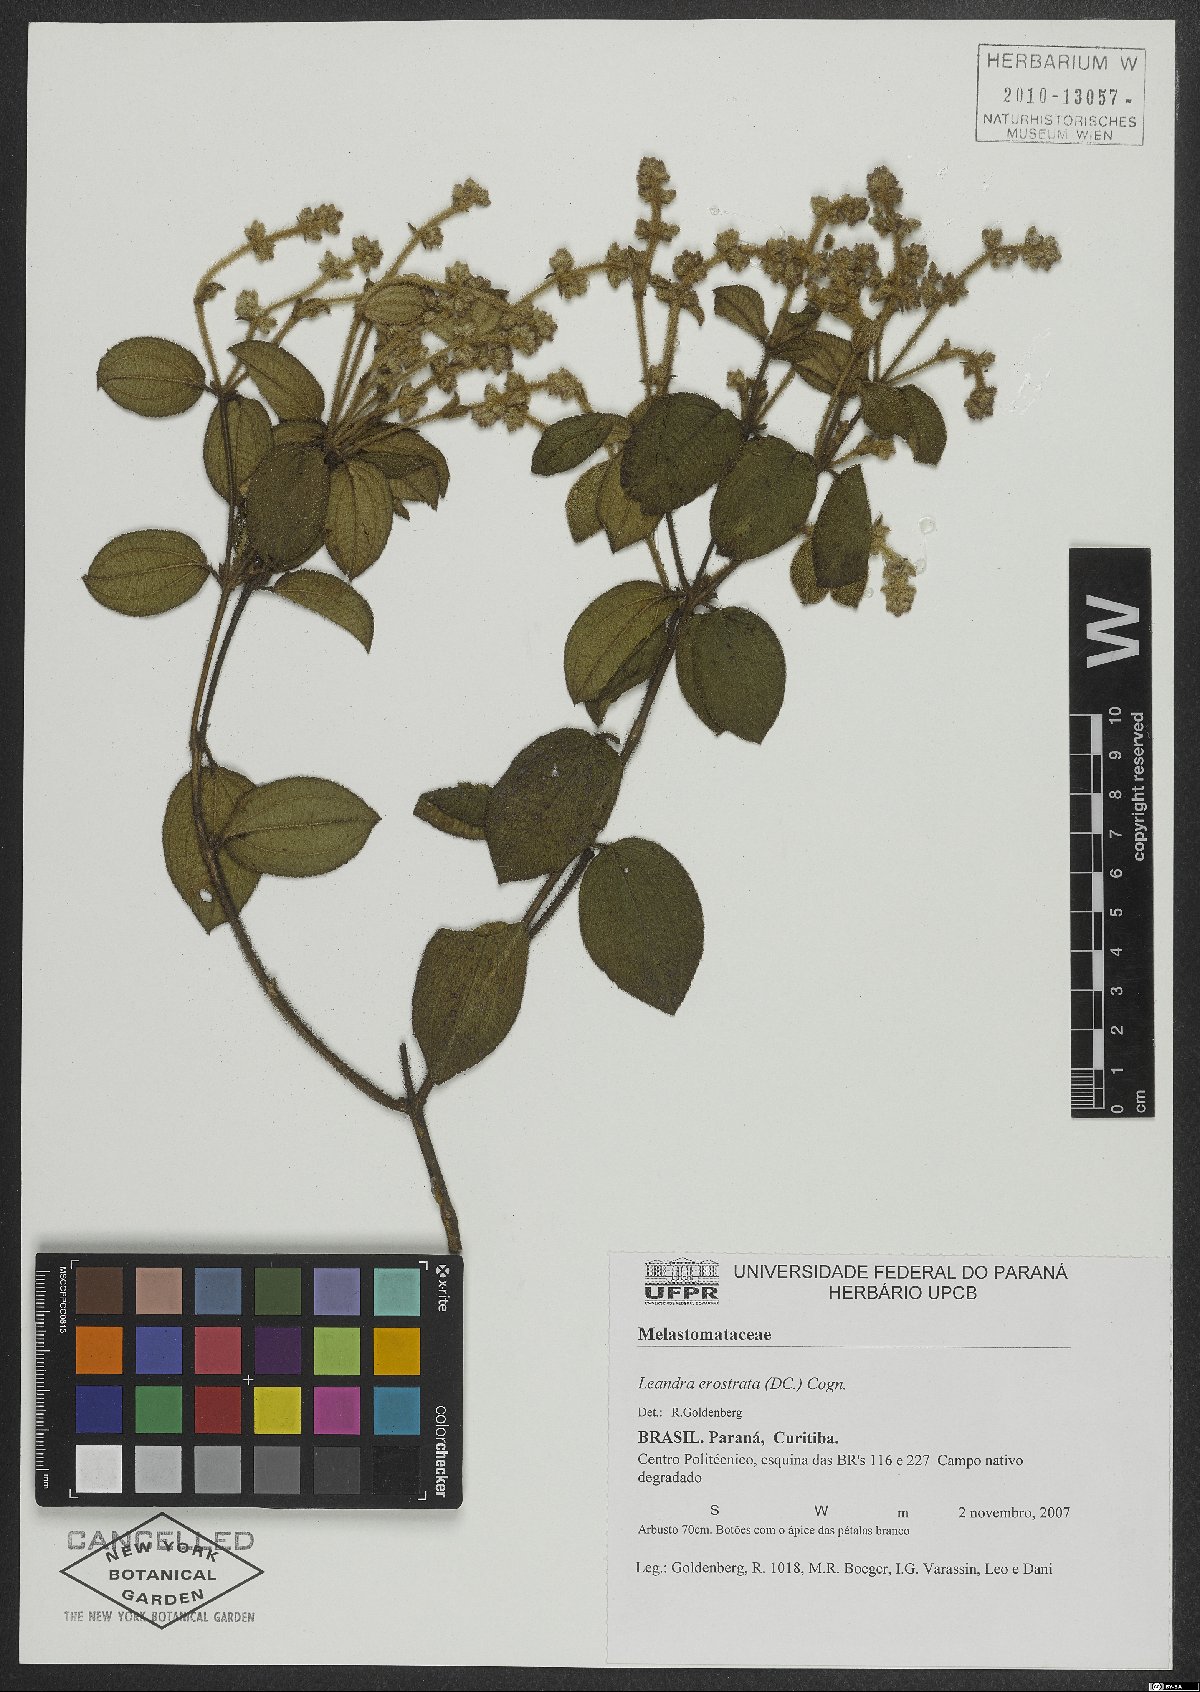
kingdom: Plantae
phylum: Tracheophyta
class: Magnoliopsida
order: Myrtales
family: Melastomataceae
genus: Miconia
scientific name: Miconia erostrata
